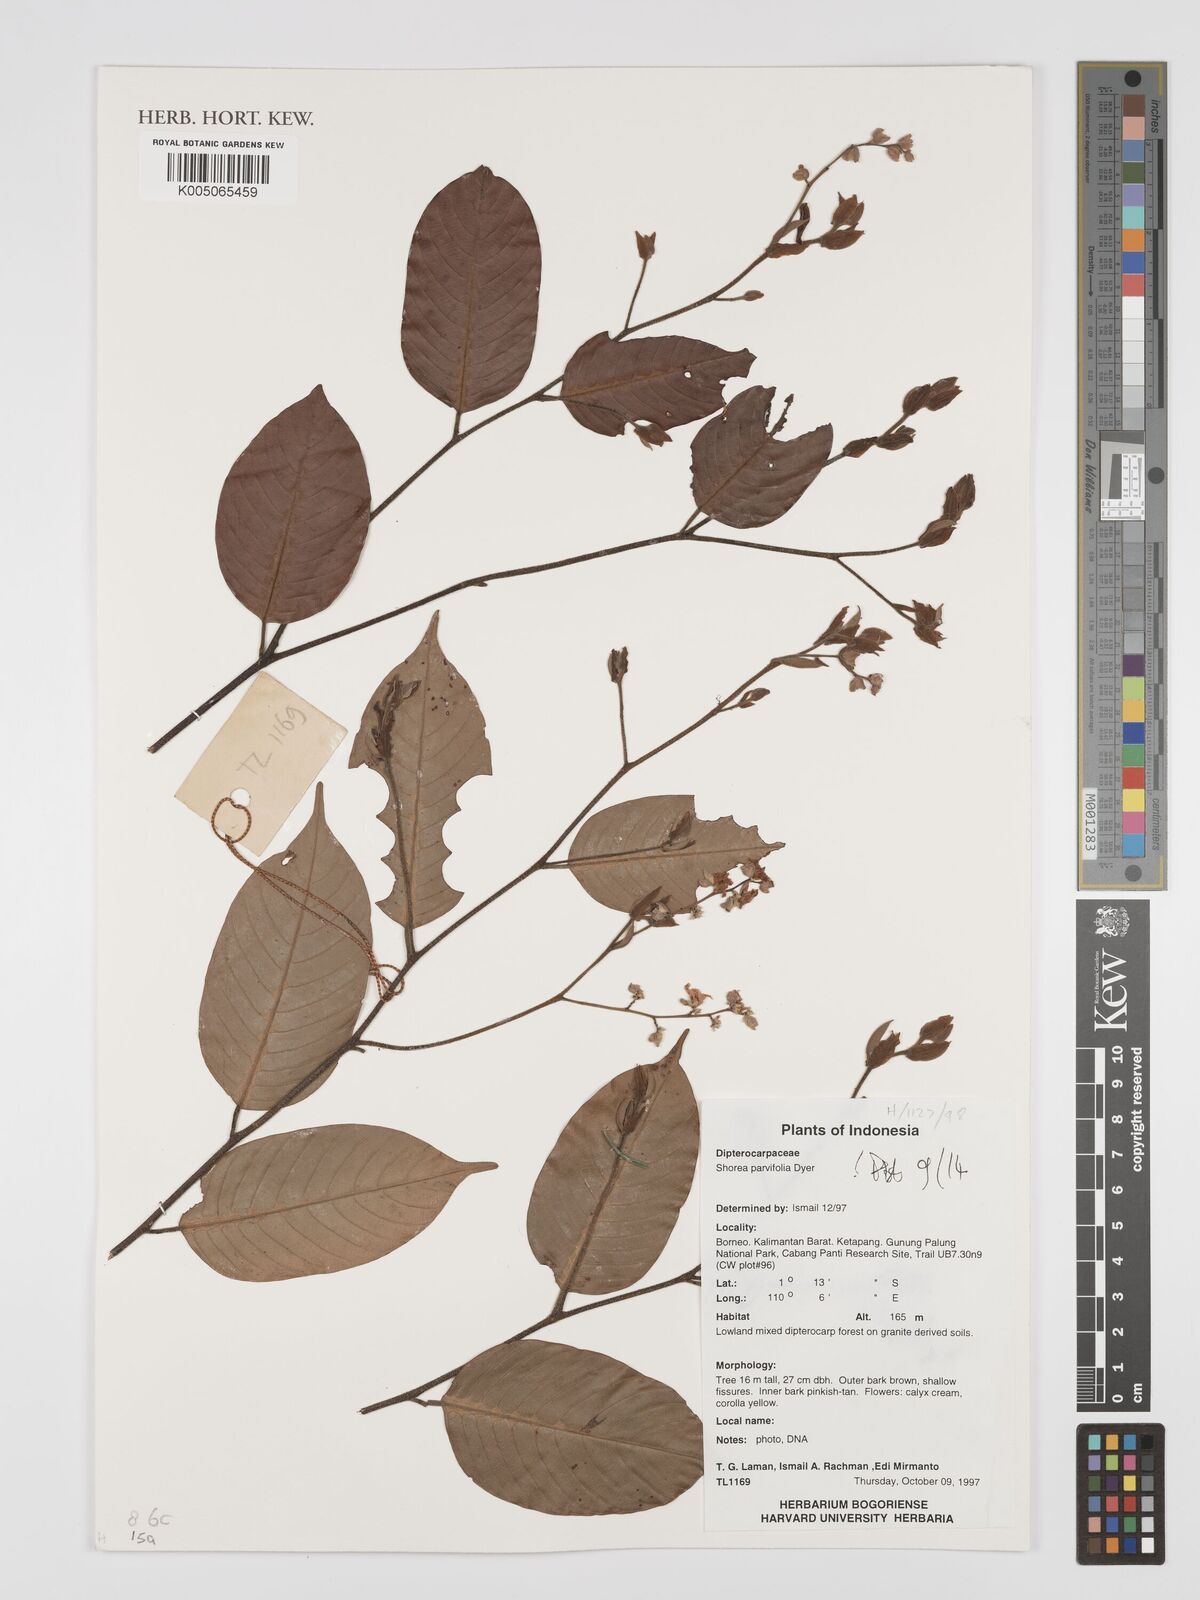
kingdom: Plantae
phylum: Tracheophyta
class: Magnoliopsida
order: Malvales
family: Dipterocarpaceae
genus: Shorea
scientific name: Shorea parvifolia
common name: Light red meranti
